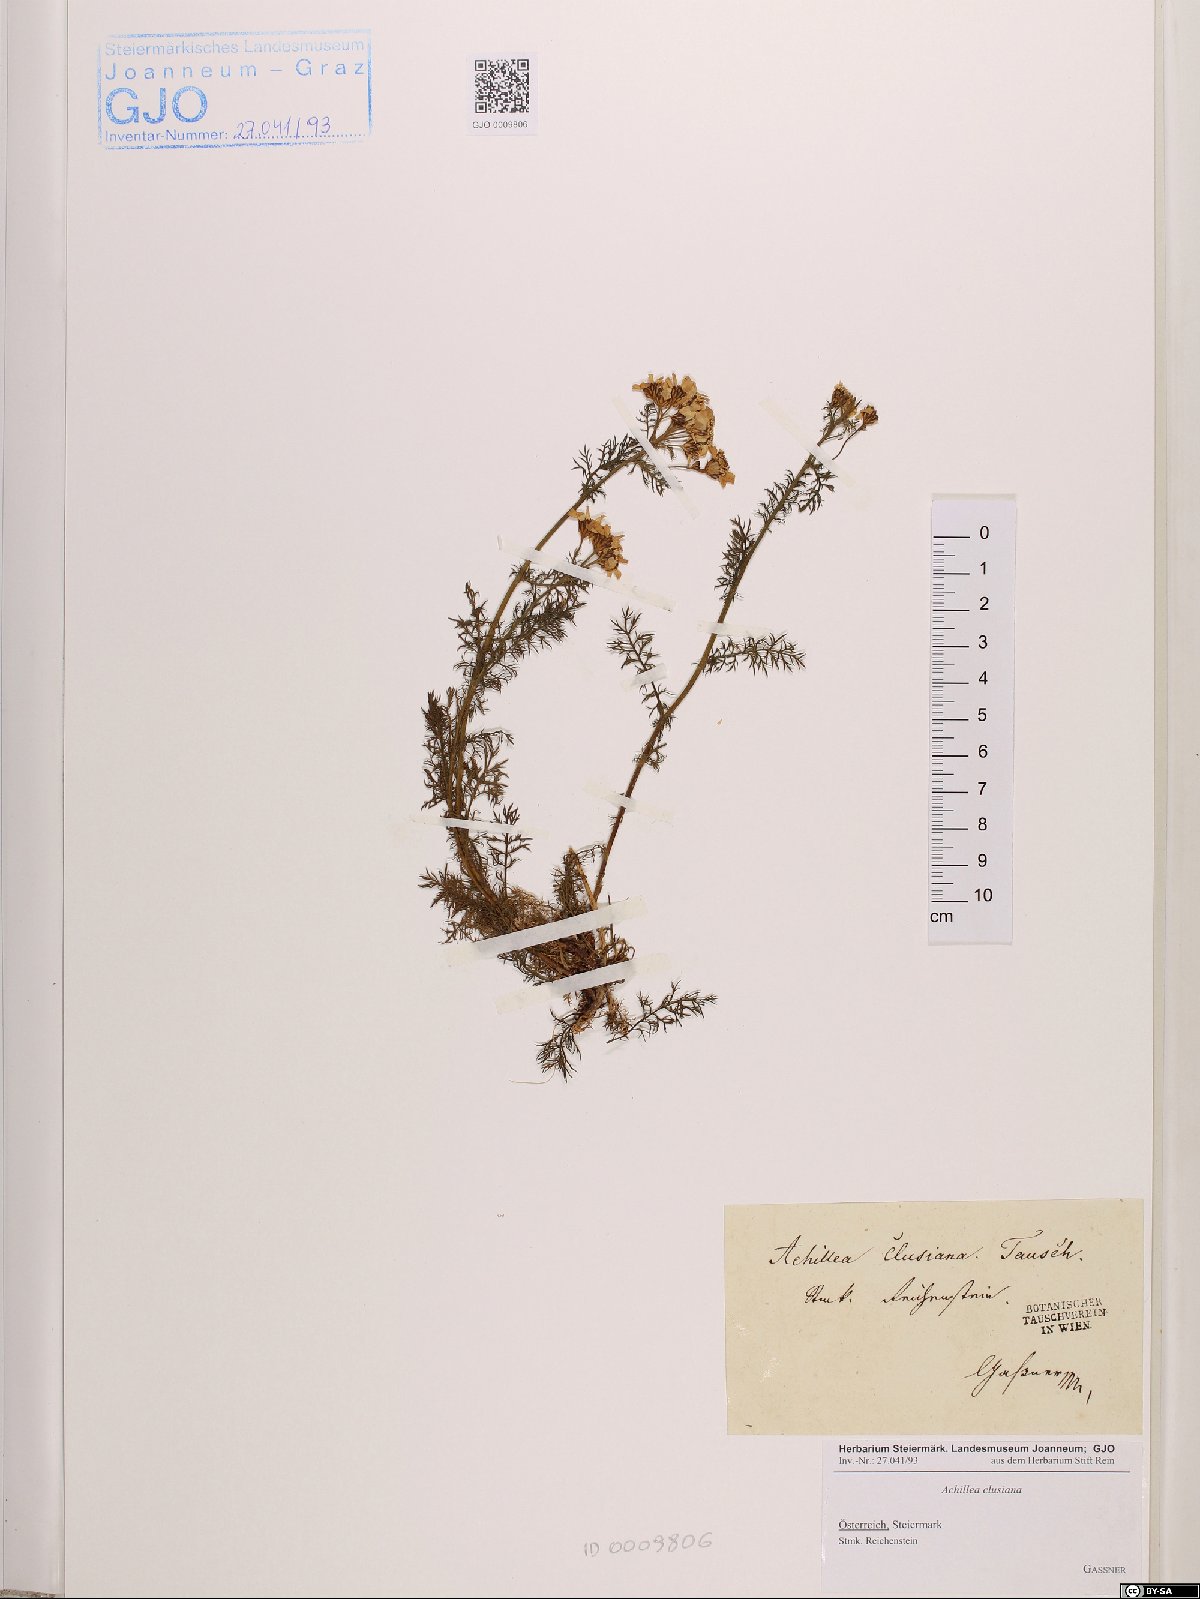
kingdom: Plantae
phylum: Tracheophyta
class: Magnoliopsida
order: Asterales
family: Asteraceae
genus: Achillea
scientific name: Achillea clusiana
